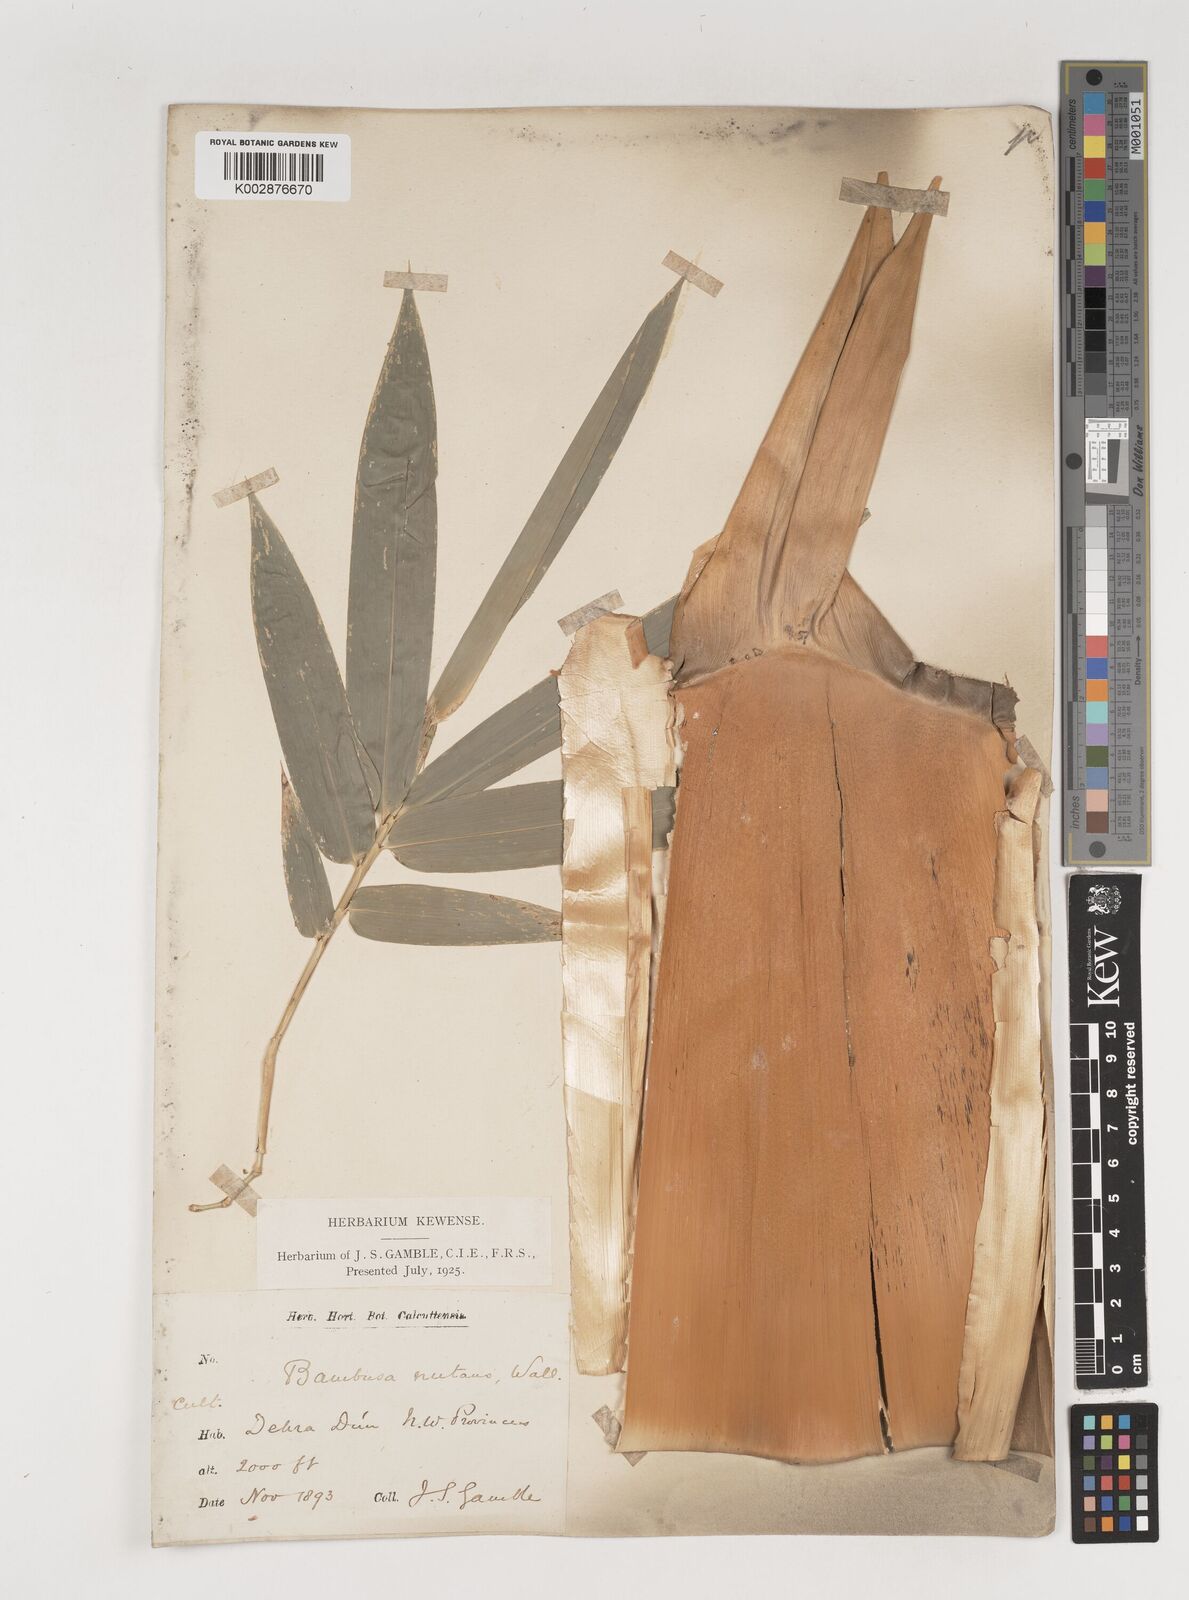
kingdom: Plantae
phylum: Tracheophyta
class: Liliopsida
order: Poales
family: Poaceae
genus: Bambusa
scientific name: Bambusa nutans
